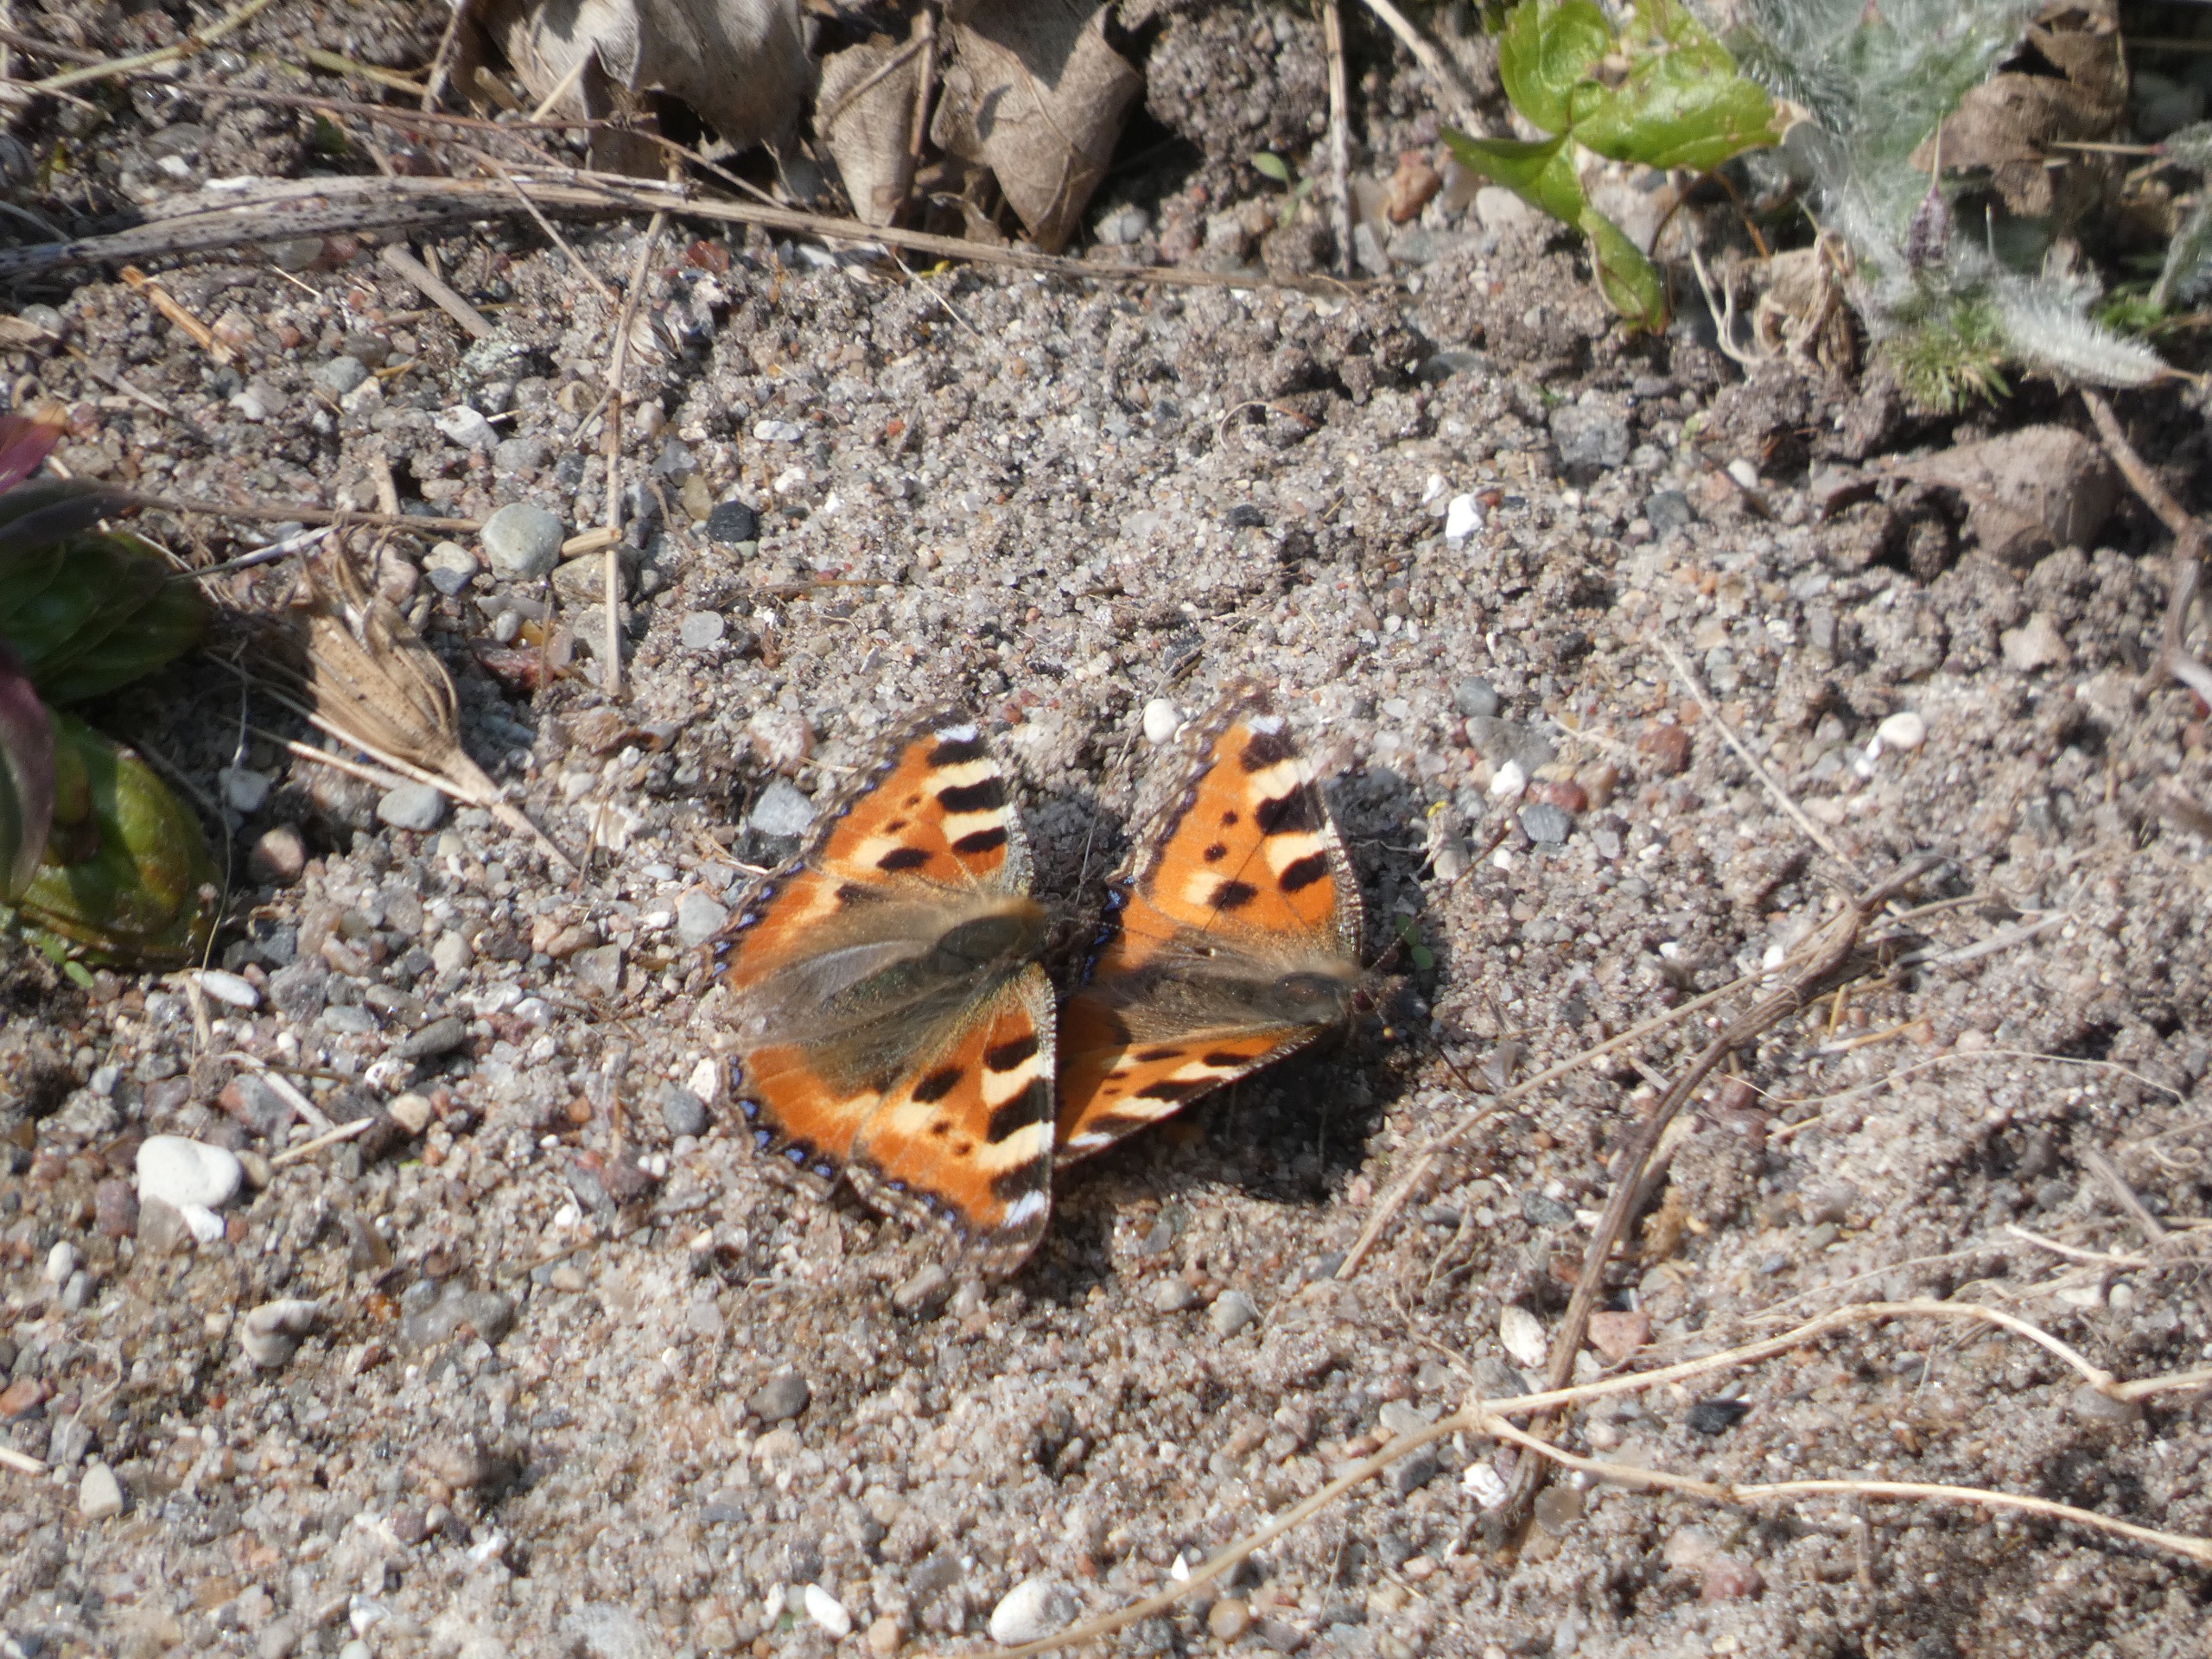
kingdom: Animalia
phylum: Arthropoda
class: Insecta
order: Lepidoptera
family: Nymphalidae
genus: Aglais
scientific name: Aglais urticae
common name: Nældens takvinge
